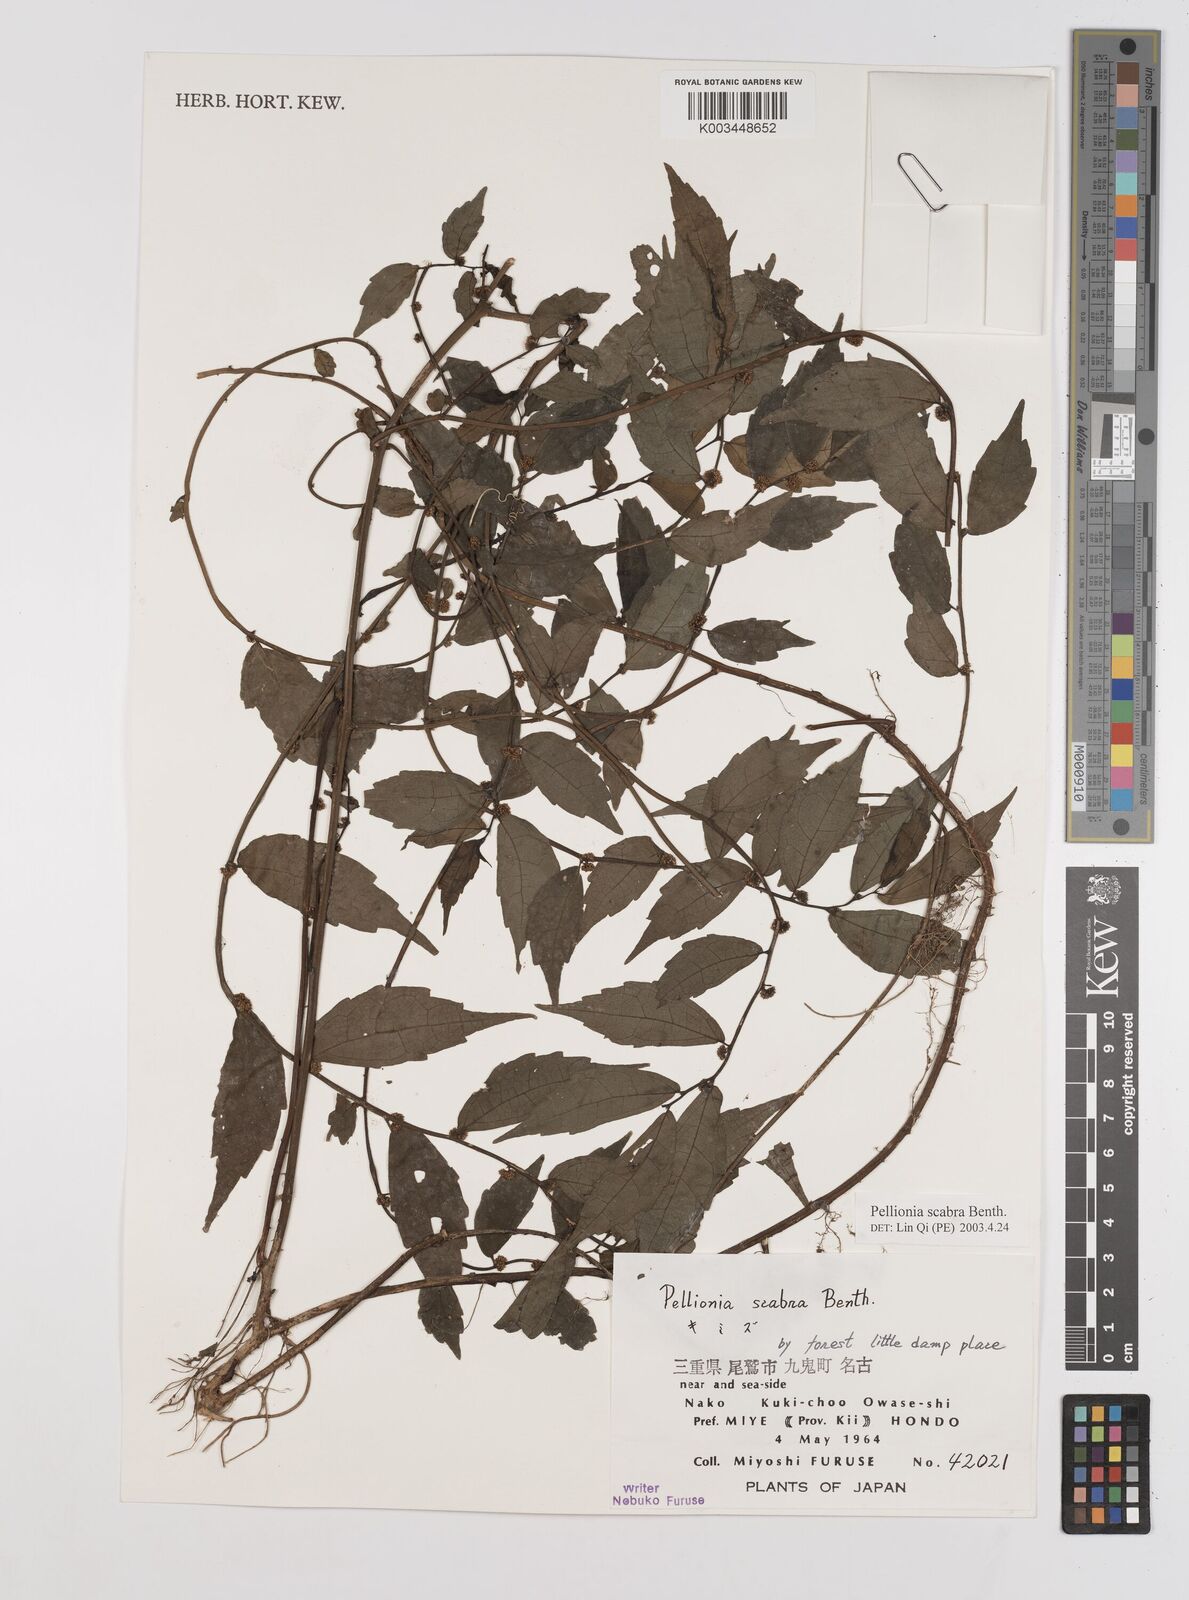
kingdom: Plantae
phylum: Tracheophyta
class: Magnoliopsida
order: Rosales
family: Urticaceae
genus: Elatostema
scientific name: Elatostema
